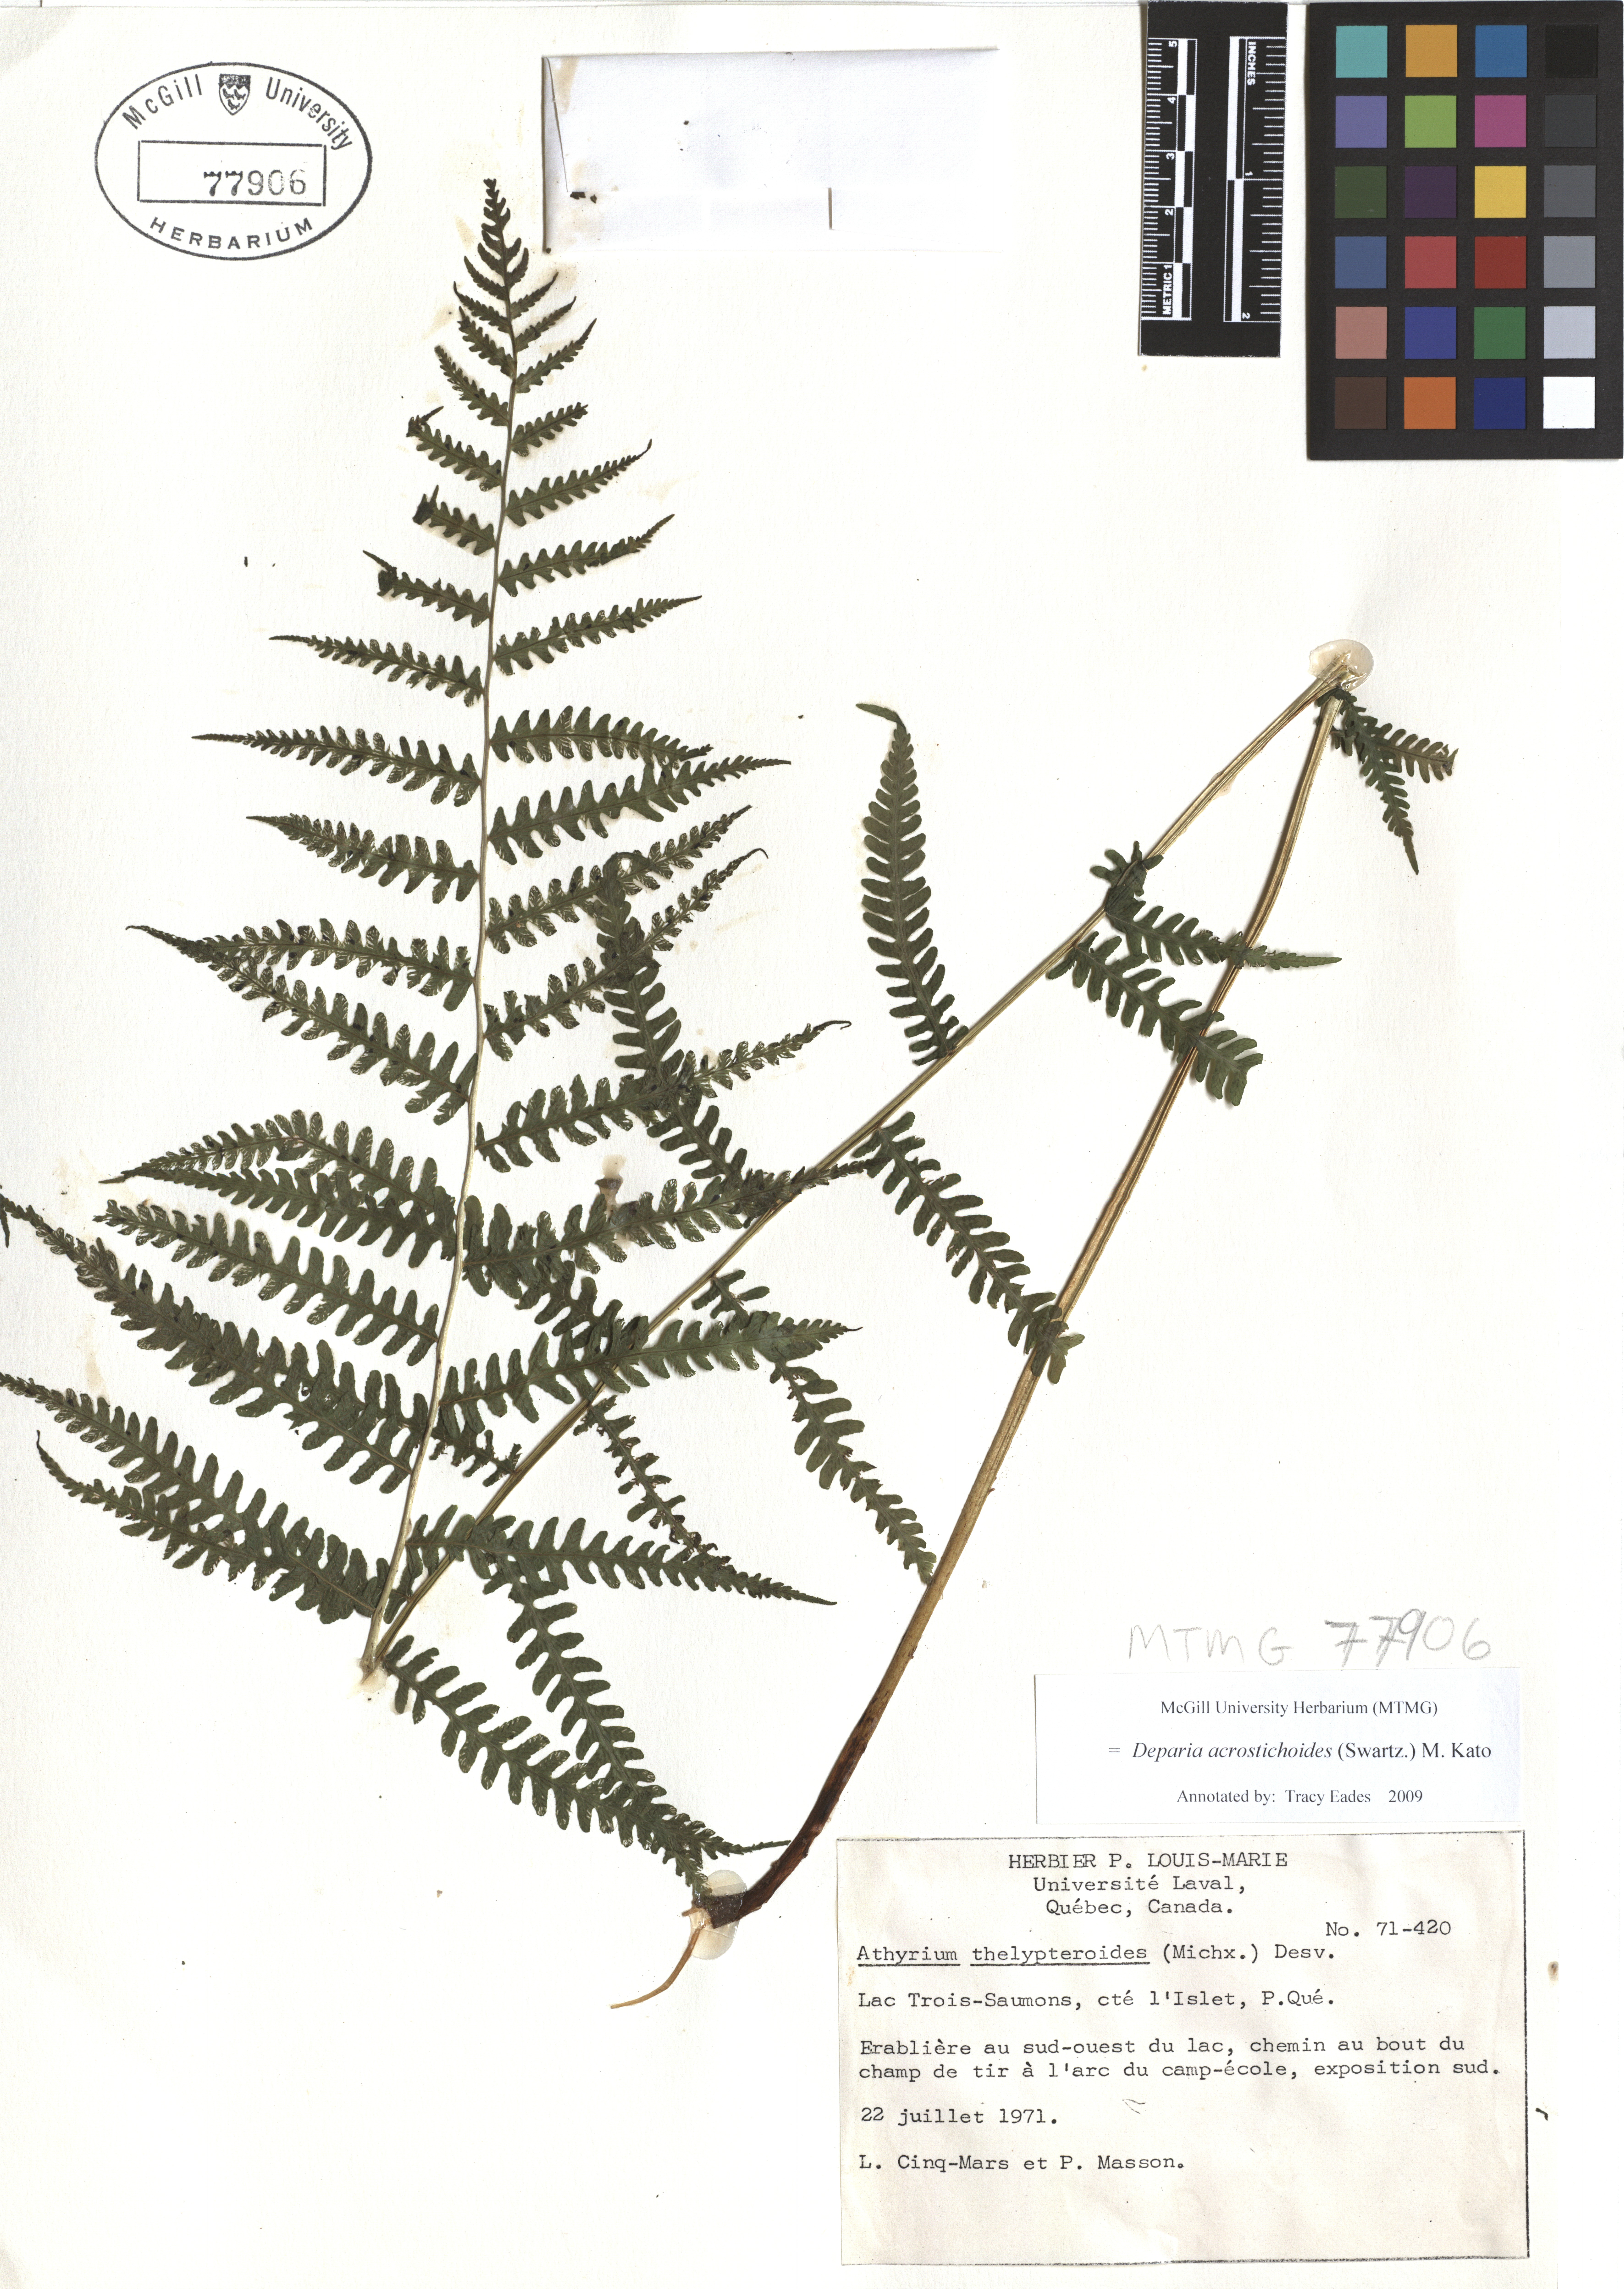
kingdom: Plantae
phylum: Tracheophyta
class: Polypodiopsida
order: Polypodiales
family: Athyriaceae
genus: Deparia
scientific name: Deparia acrostichoides
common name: Silver false spleenwort
